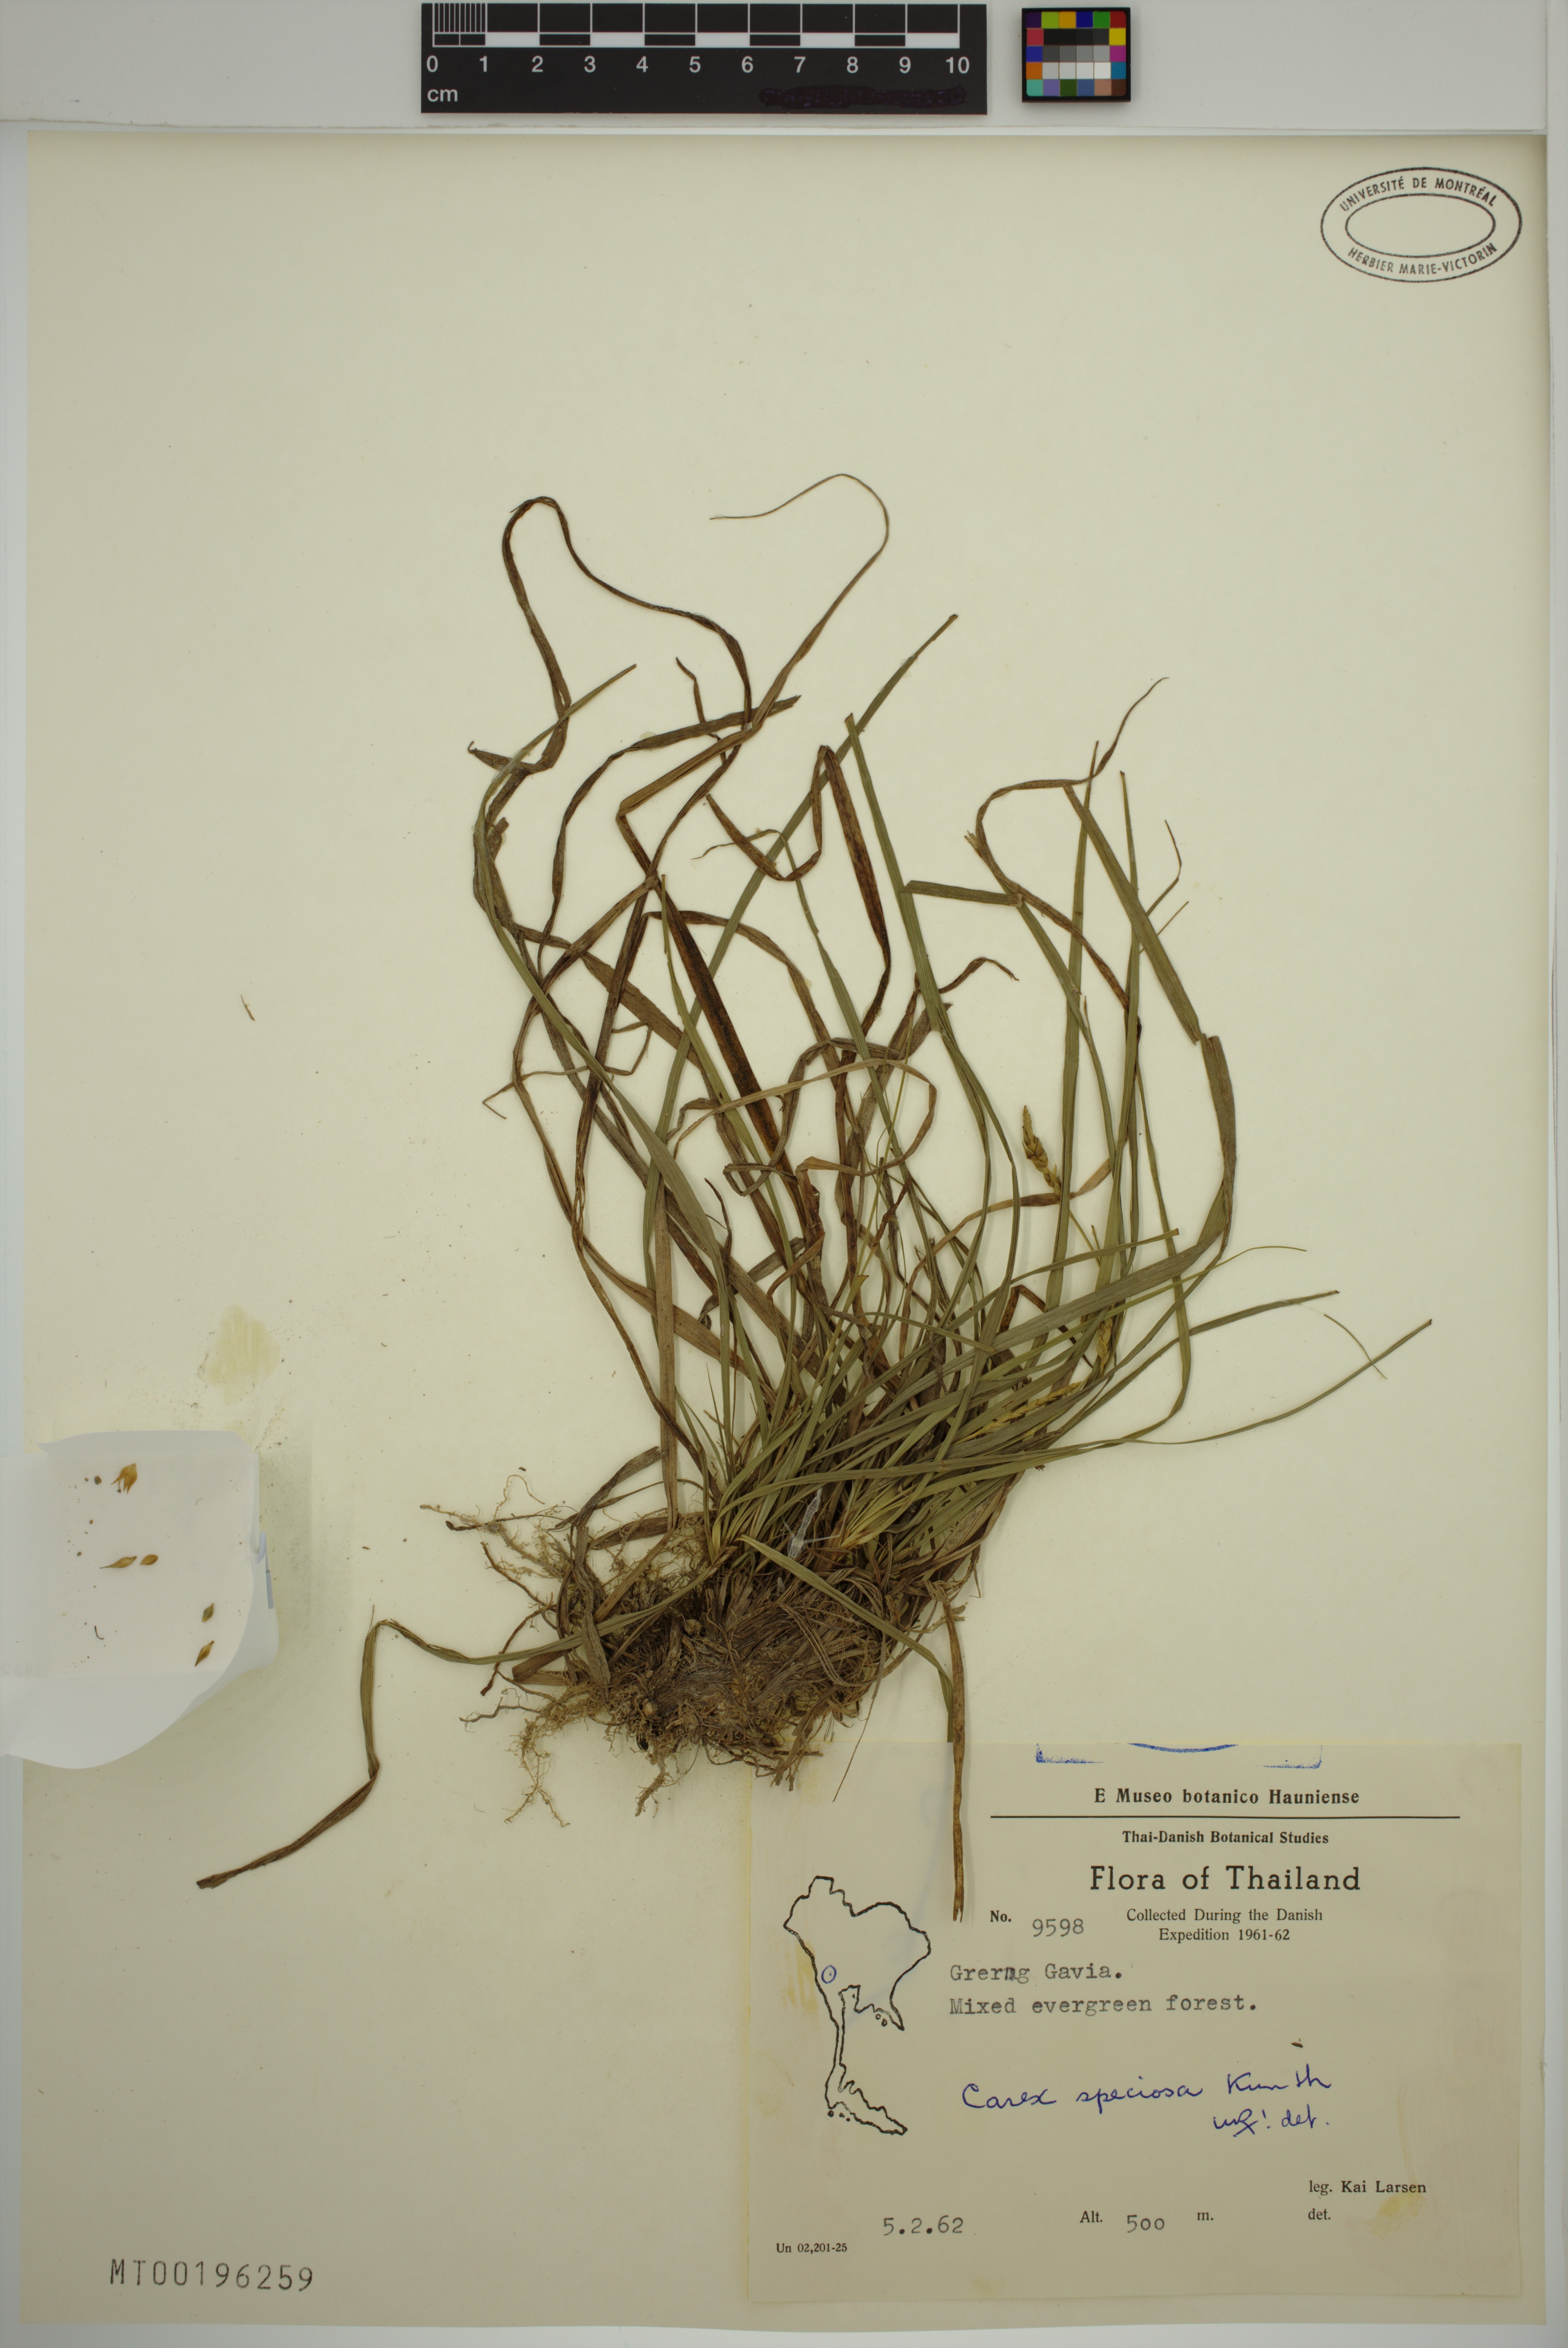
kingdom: Plantae
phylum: Tracheophyta
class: Liliopsida
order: Poales
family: Cyperaceae
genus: Carex
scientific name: Carex speciosa
